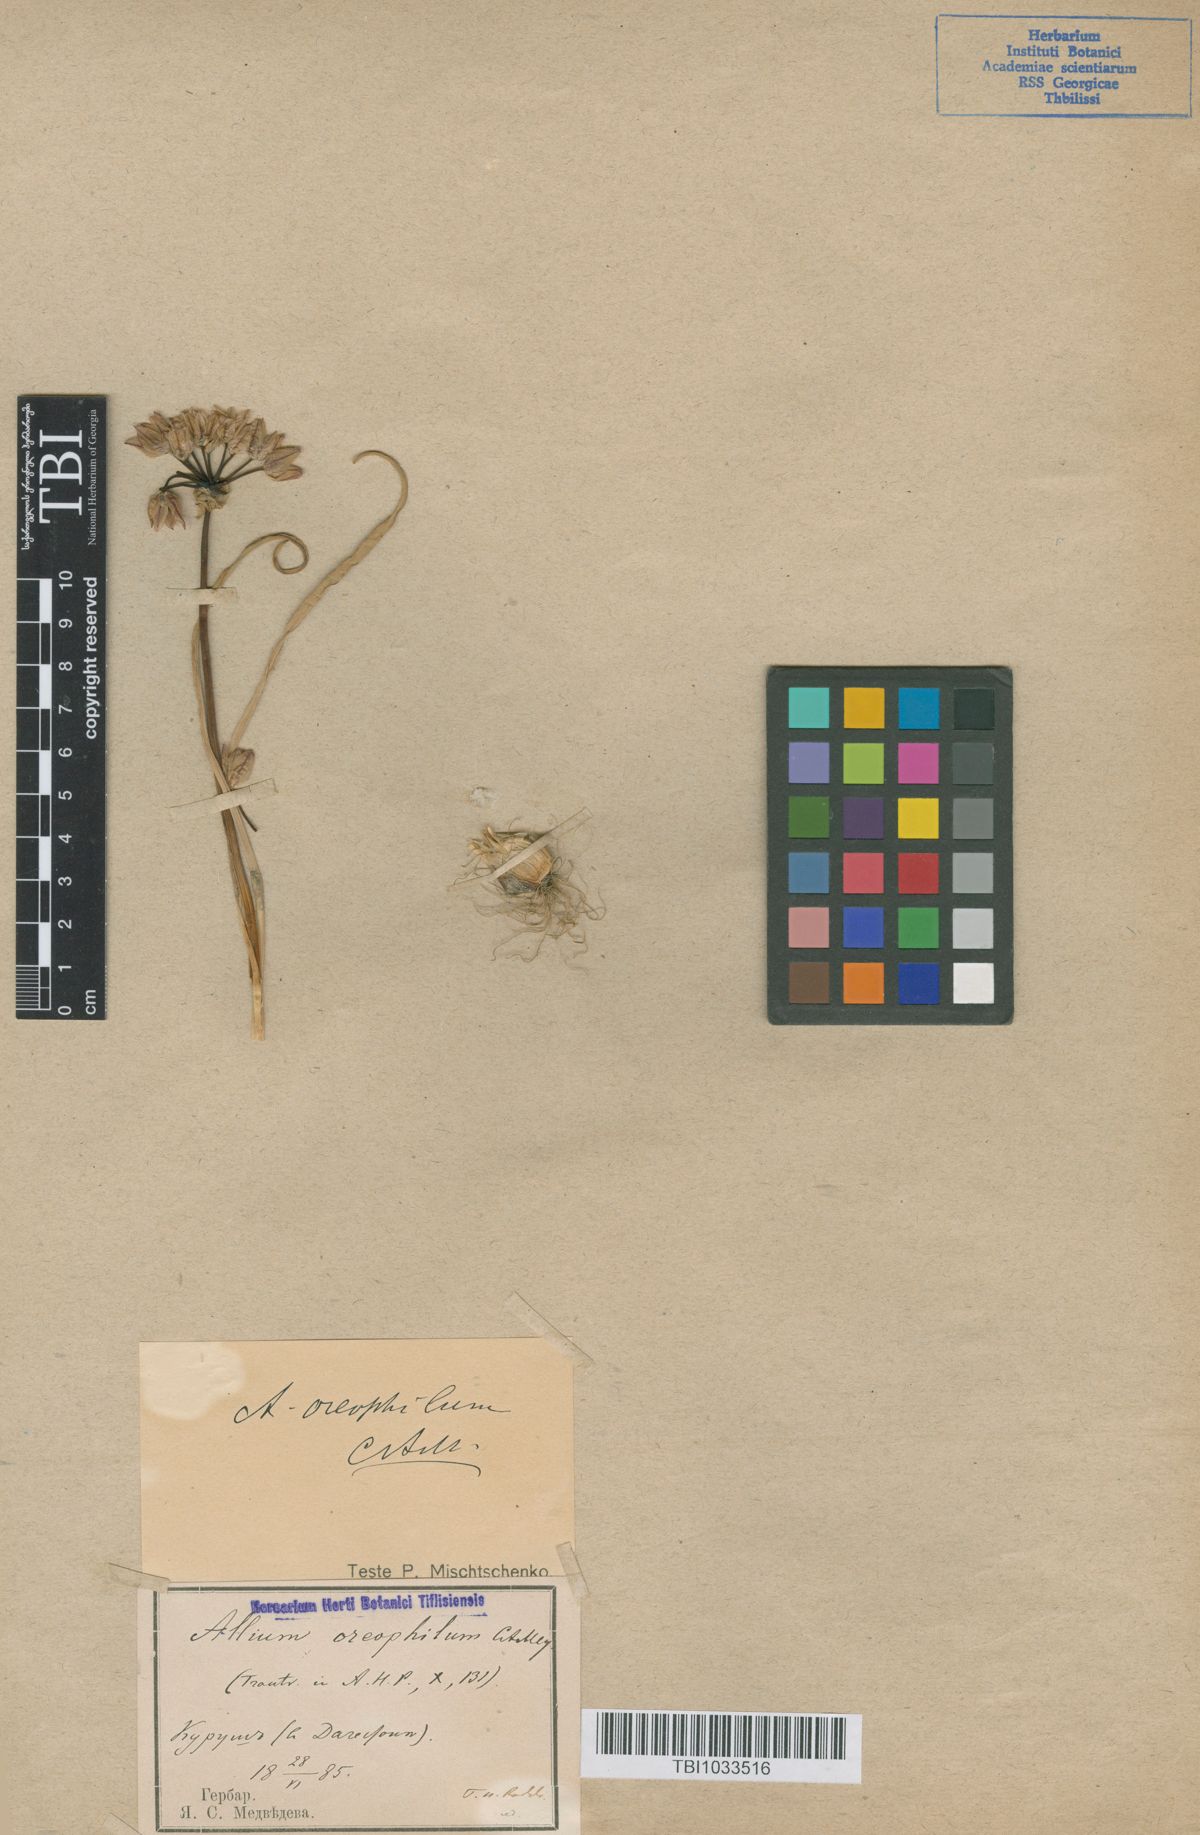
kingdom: Plantae
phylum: Tracheophyta
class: Liliopsida
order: Asparagales
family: Amaryllidaceae
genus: Allium
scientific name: Allium oreophilum
